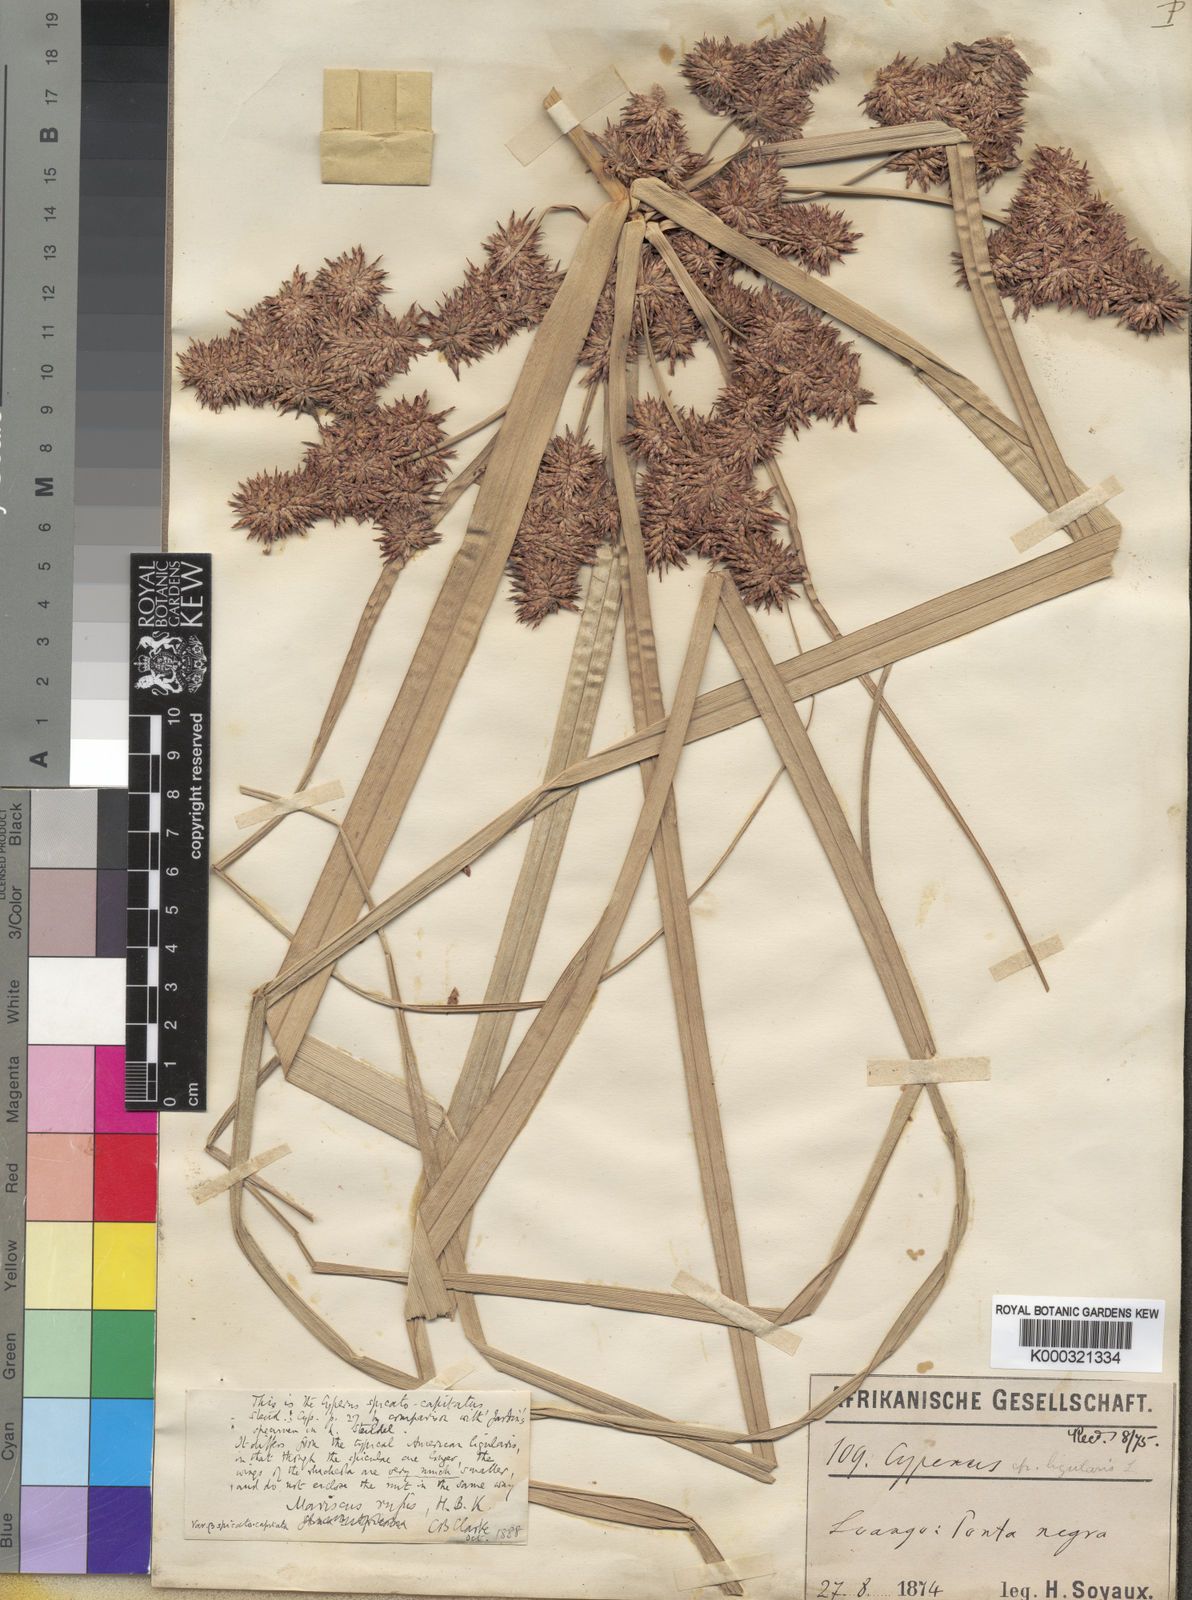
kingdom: Plantae
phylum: Tracheophyta
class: Liliopsida
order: Poales
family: Cyperaceae
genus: Cyperus
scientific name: Cyperus ligularis
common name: Swamp flat sedge
